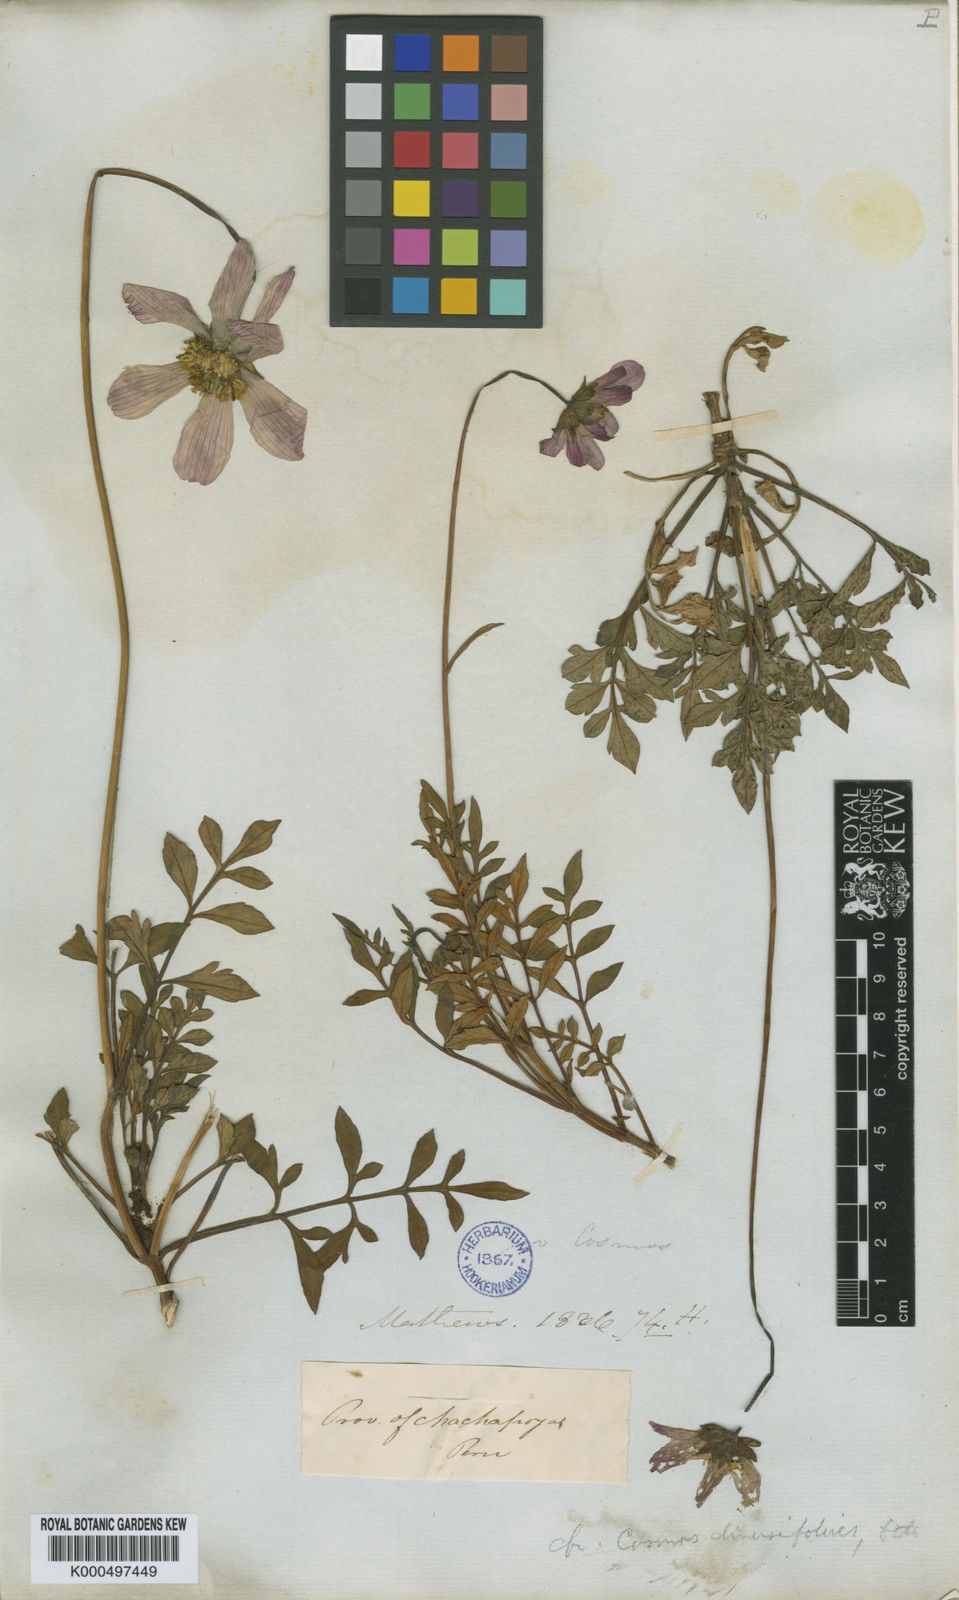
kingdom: Plantae
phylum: Tracheophyta
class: Magnoliopsida
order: Asterales
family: Asteraceae
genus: Cosmos
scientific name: Cosmos peucedanifolius
